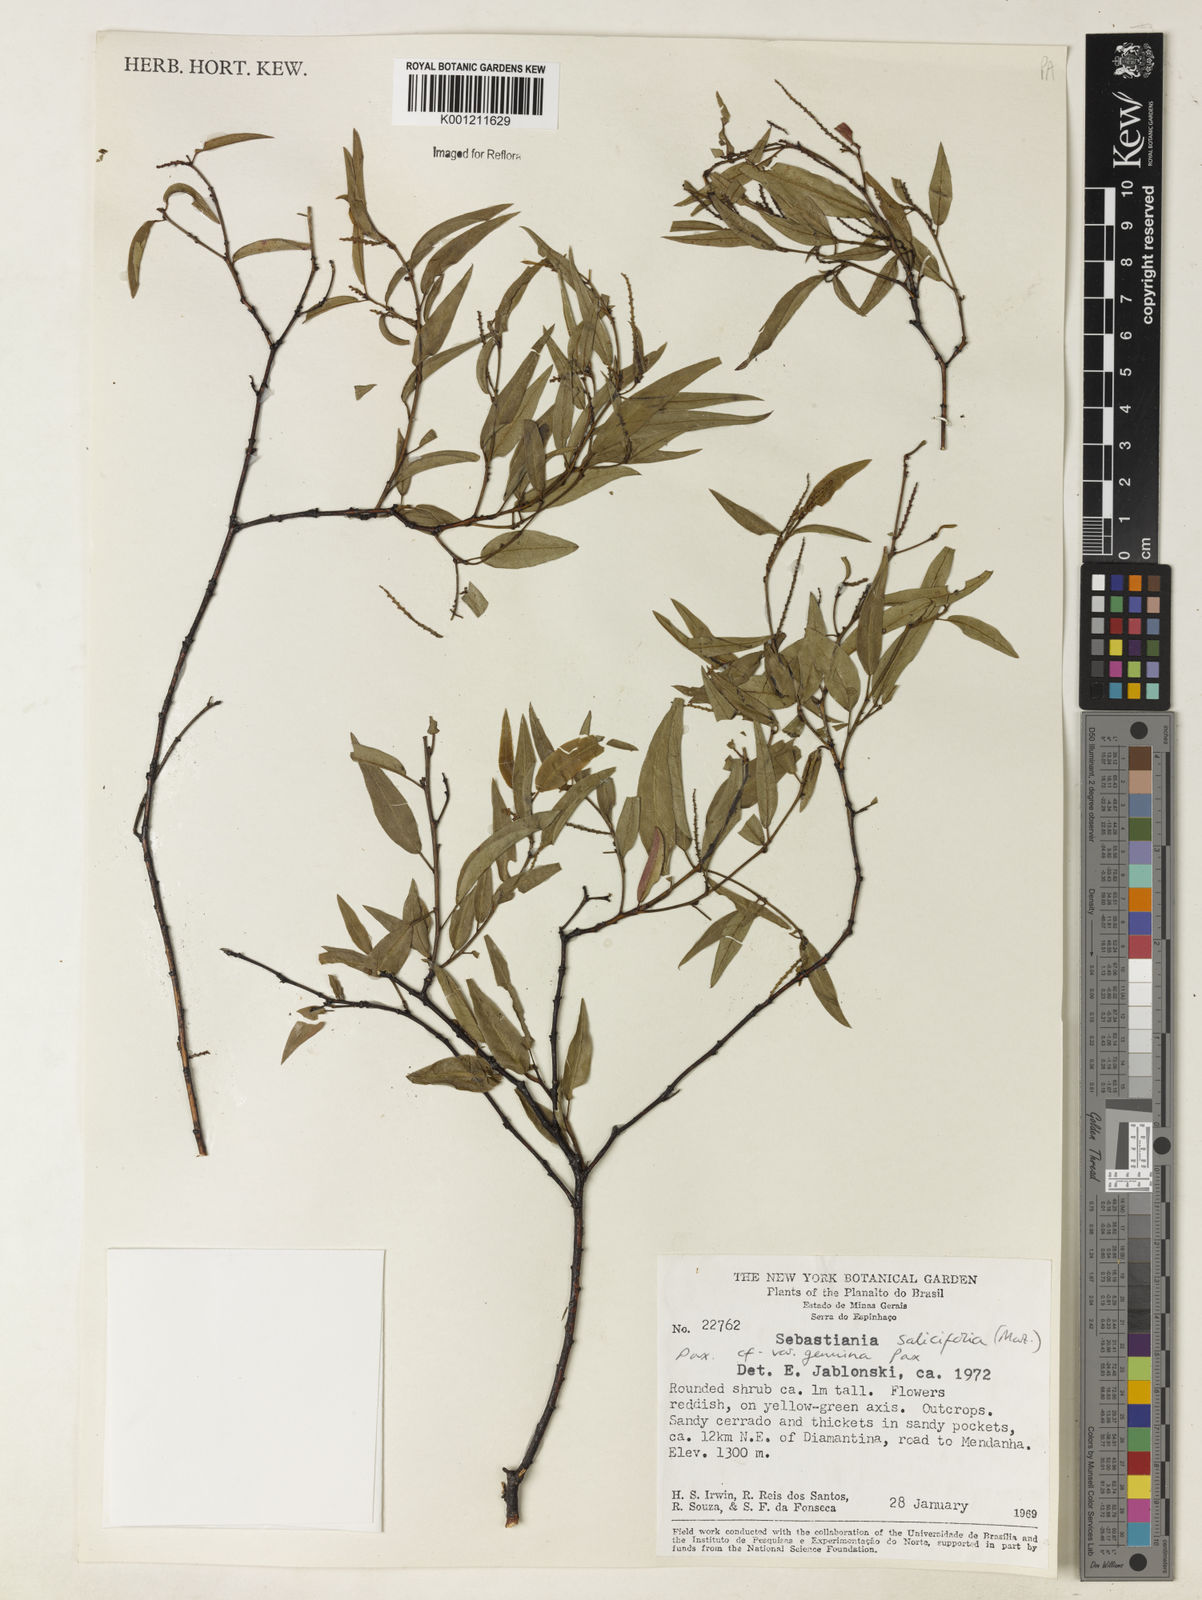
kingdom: Plantae
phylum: Tracheophyta
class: Magnoliopsida
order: Malpighiales
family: Euphorbiaceae
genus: Microstachys
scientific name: Microstachys
